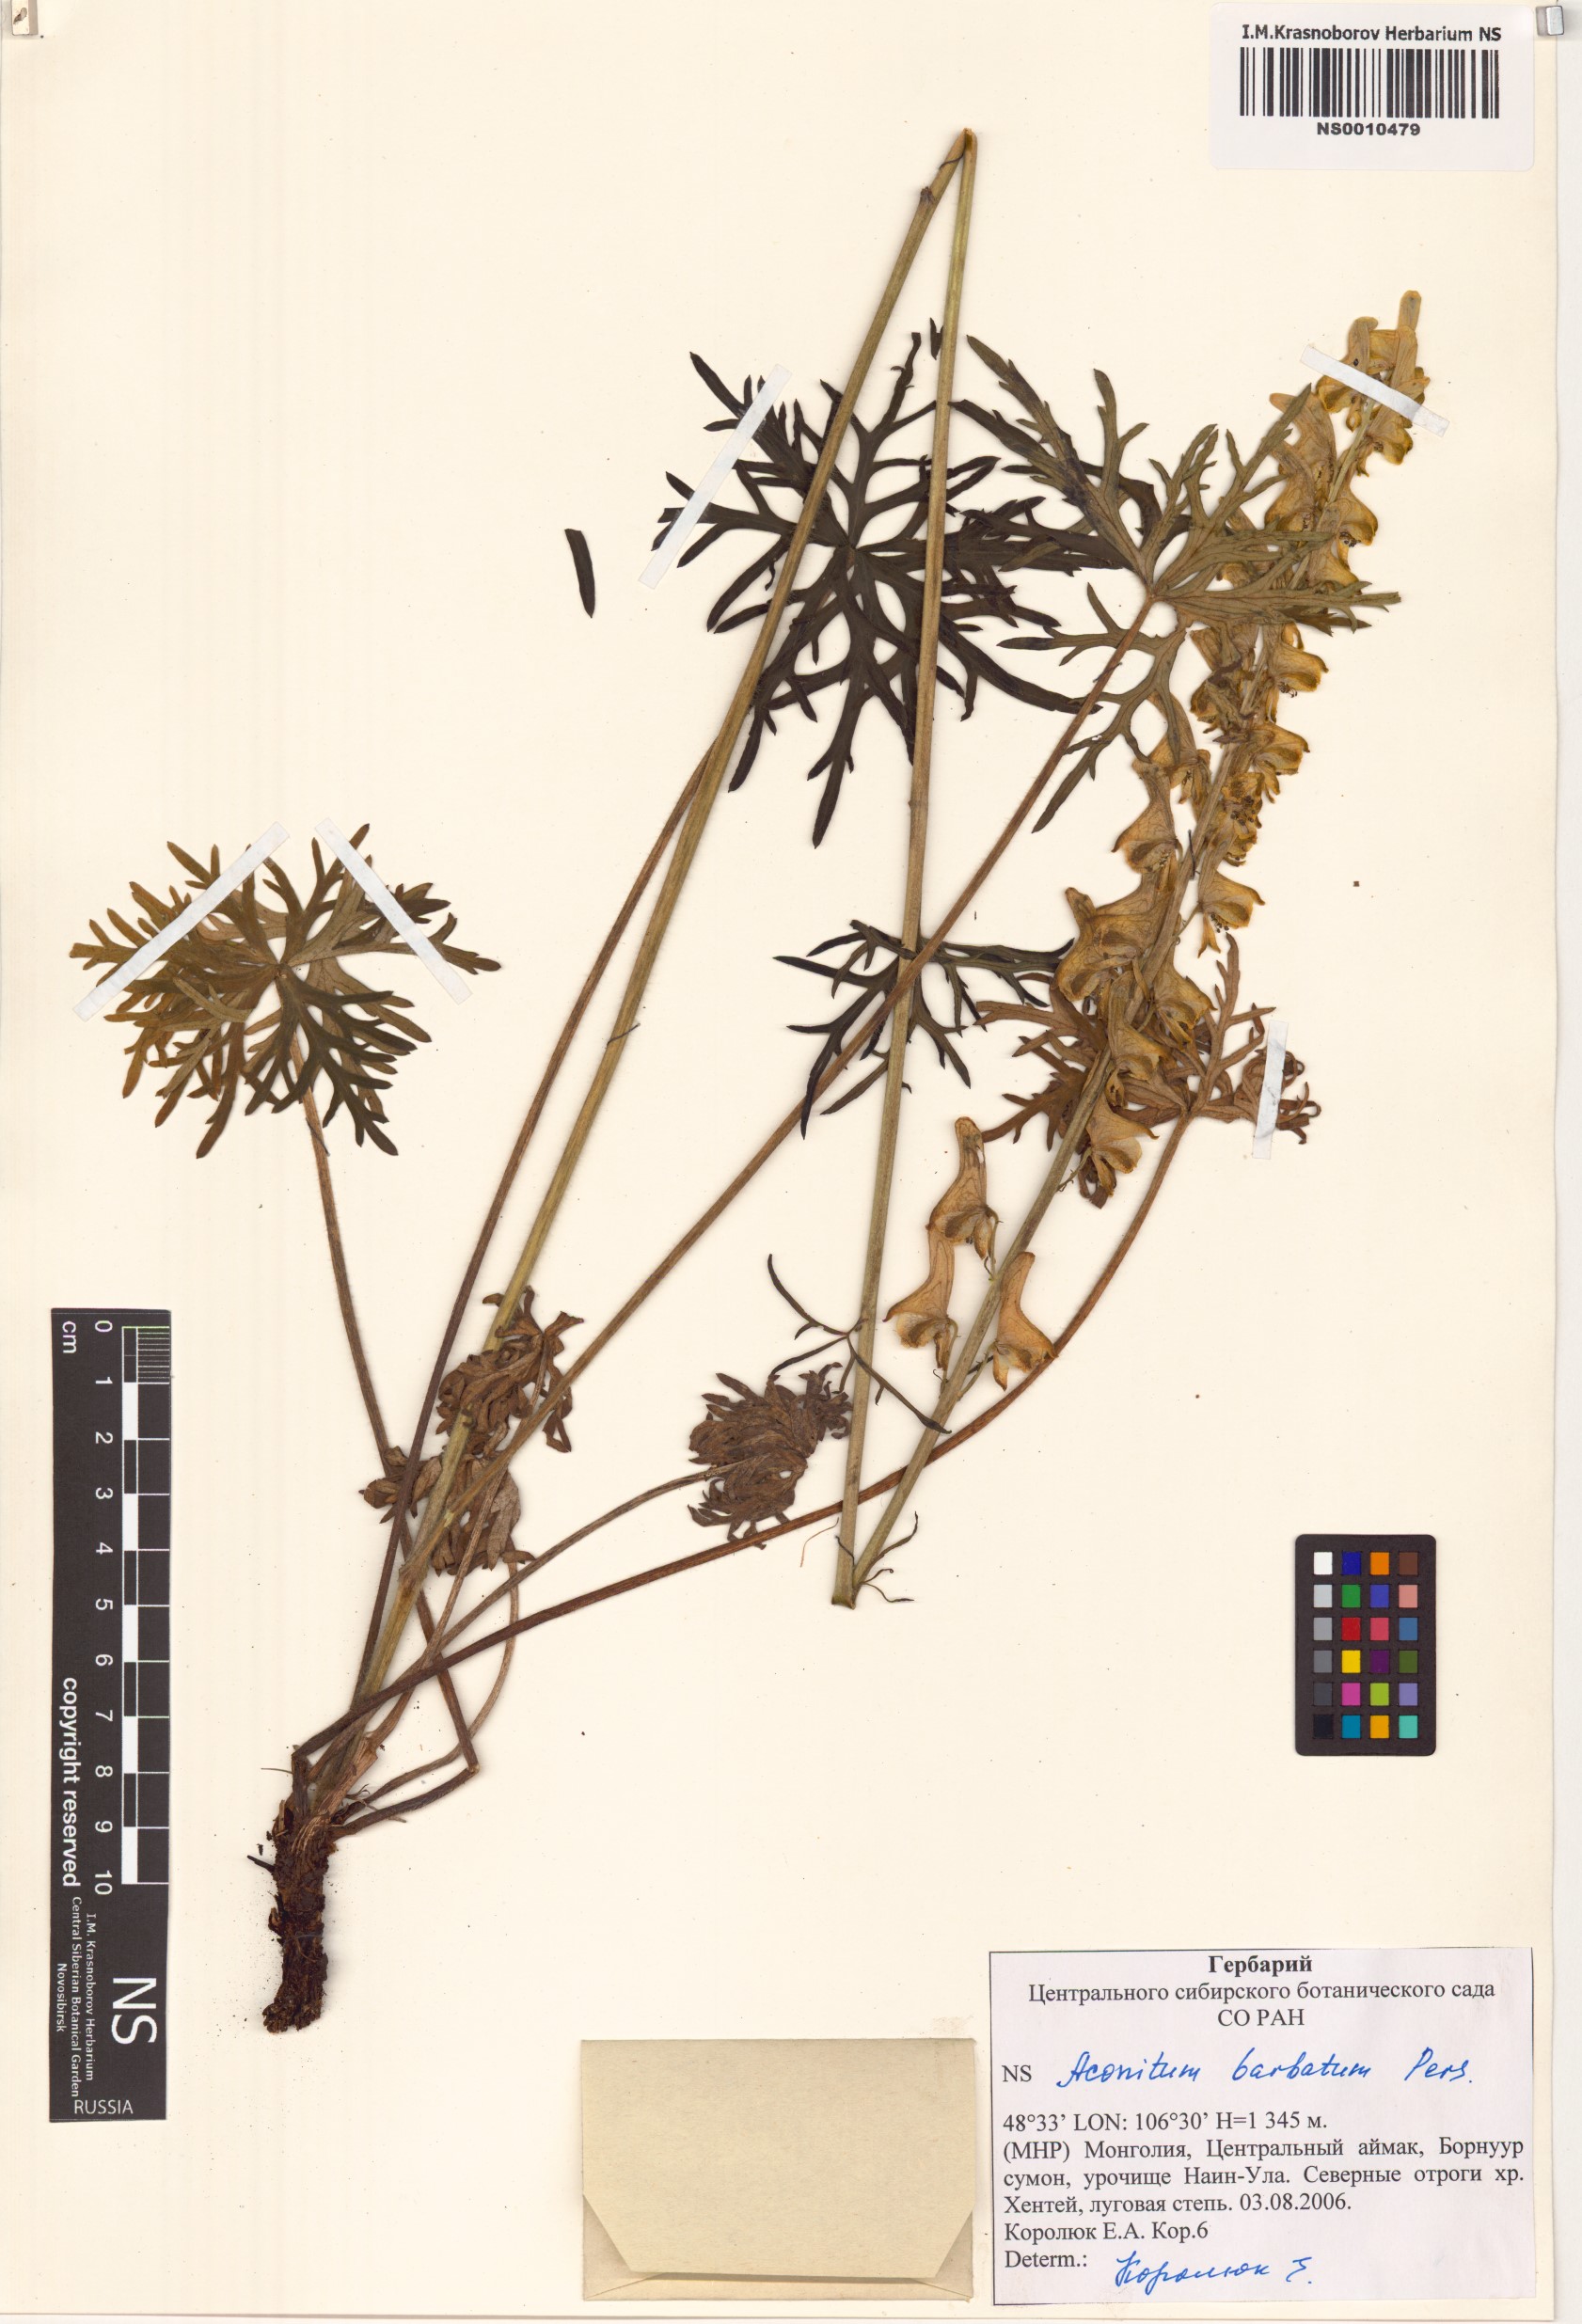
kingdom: Plantae
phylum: Tracheophyta
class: Magnoliopsida
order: Ranunculales
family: Ranunculaceae
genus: Aconitum
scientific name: Aconitum barbatum
